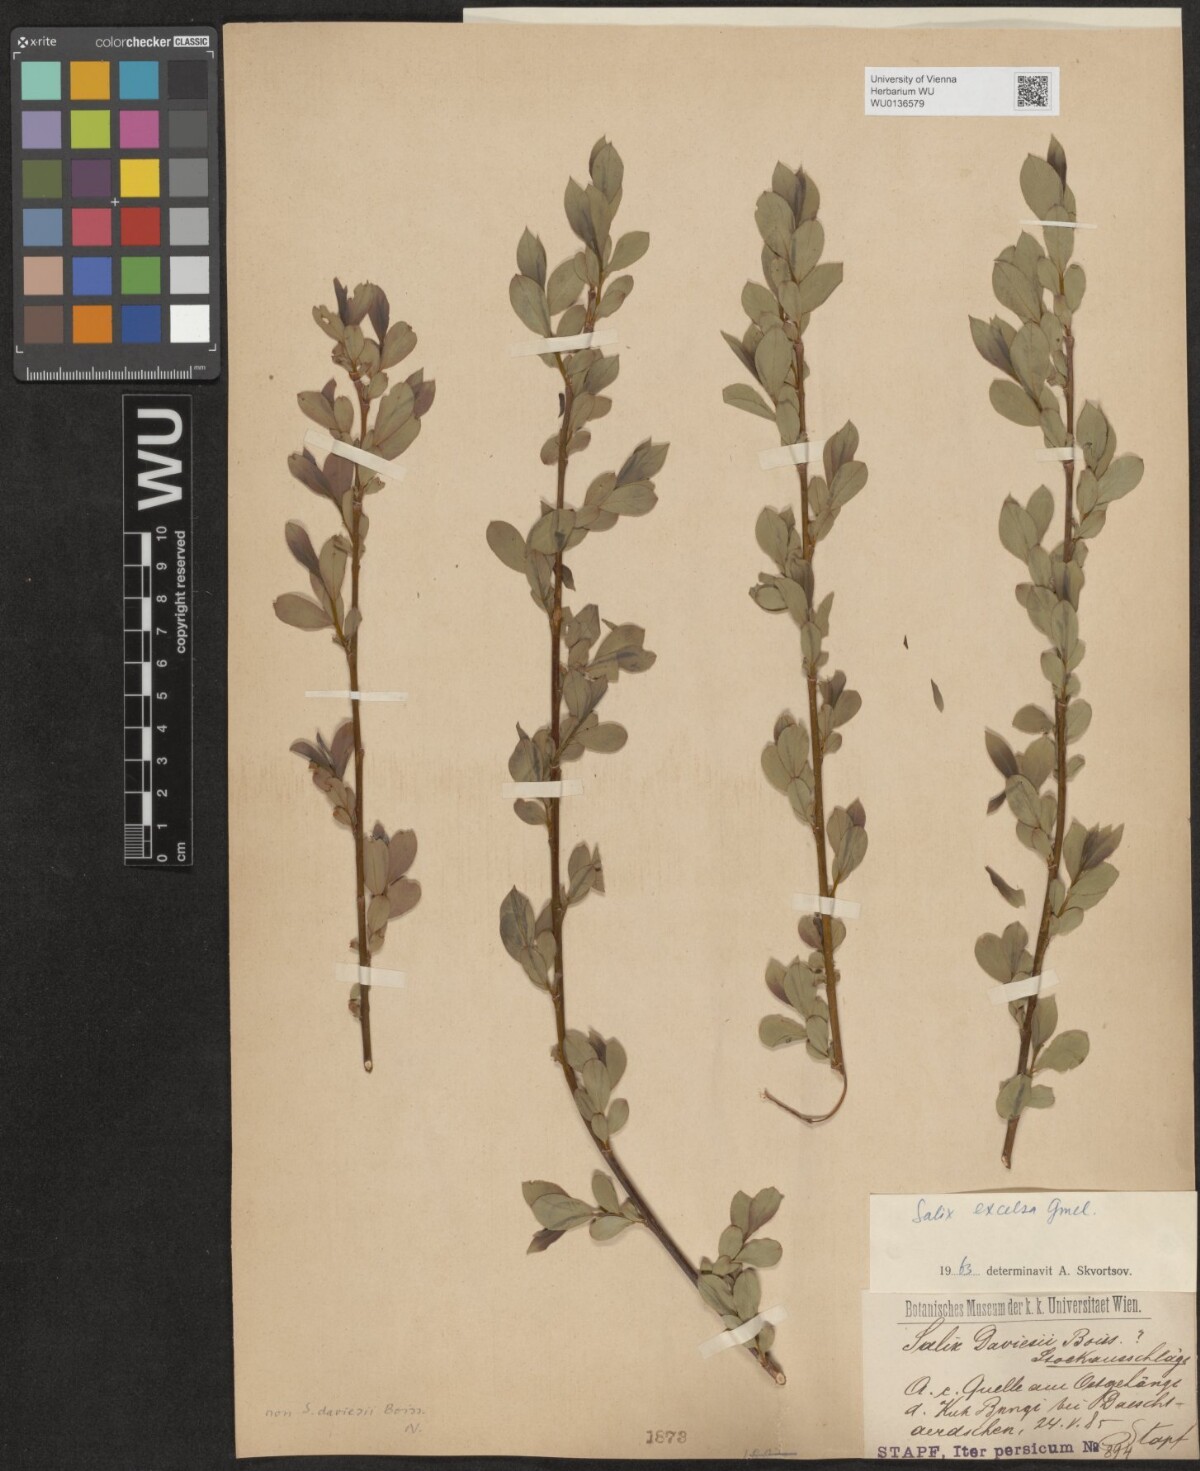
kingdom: Plantae
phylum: Tracheophyta
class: Magnoliopsida
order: Malpighiales
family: Salicaceae
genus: Salix
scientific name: Salix excelsa
